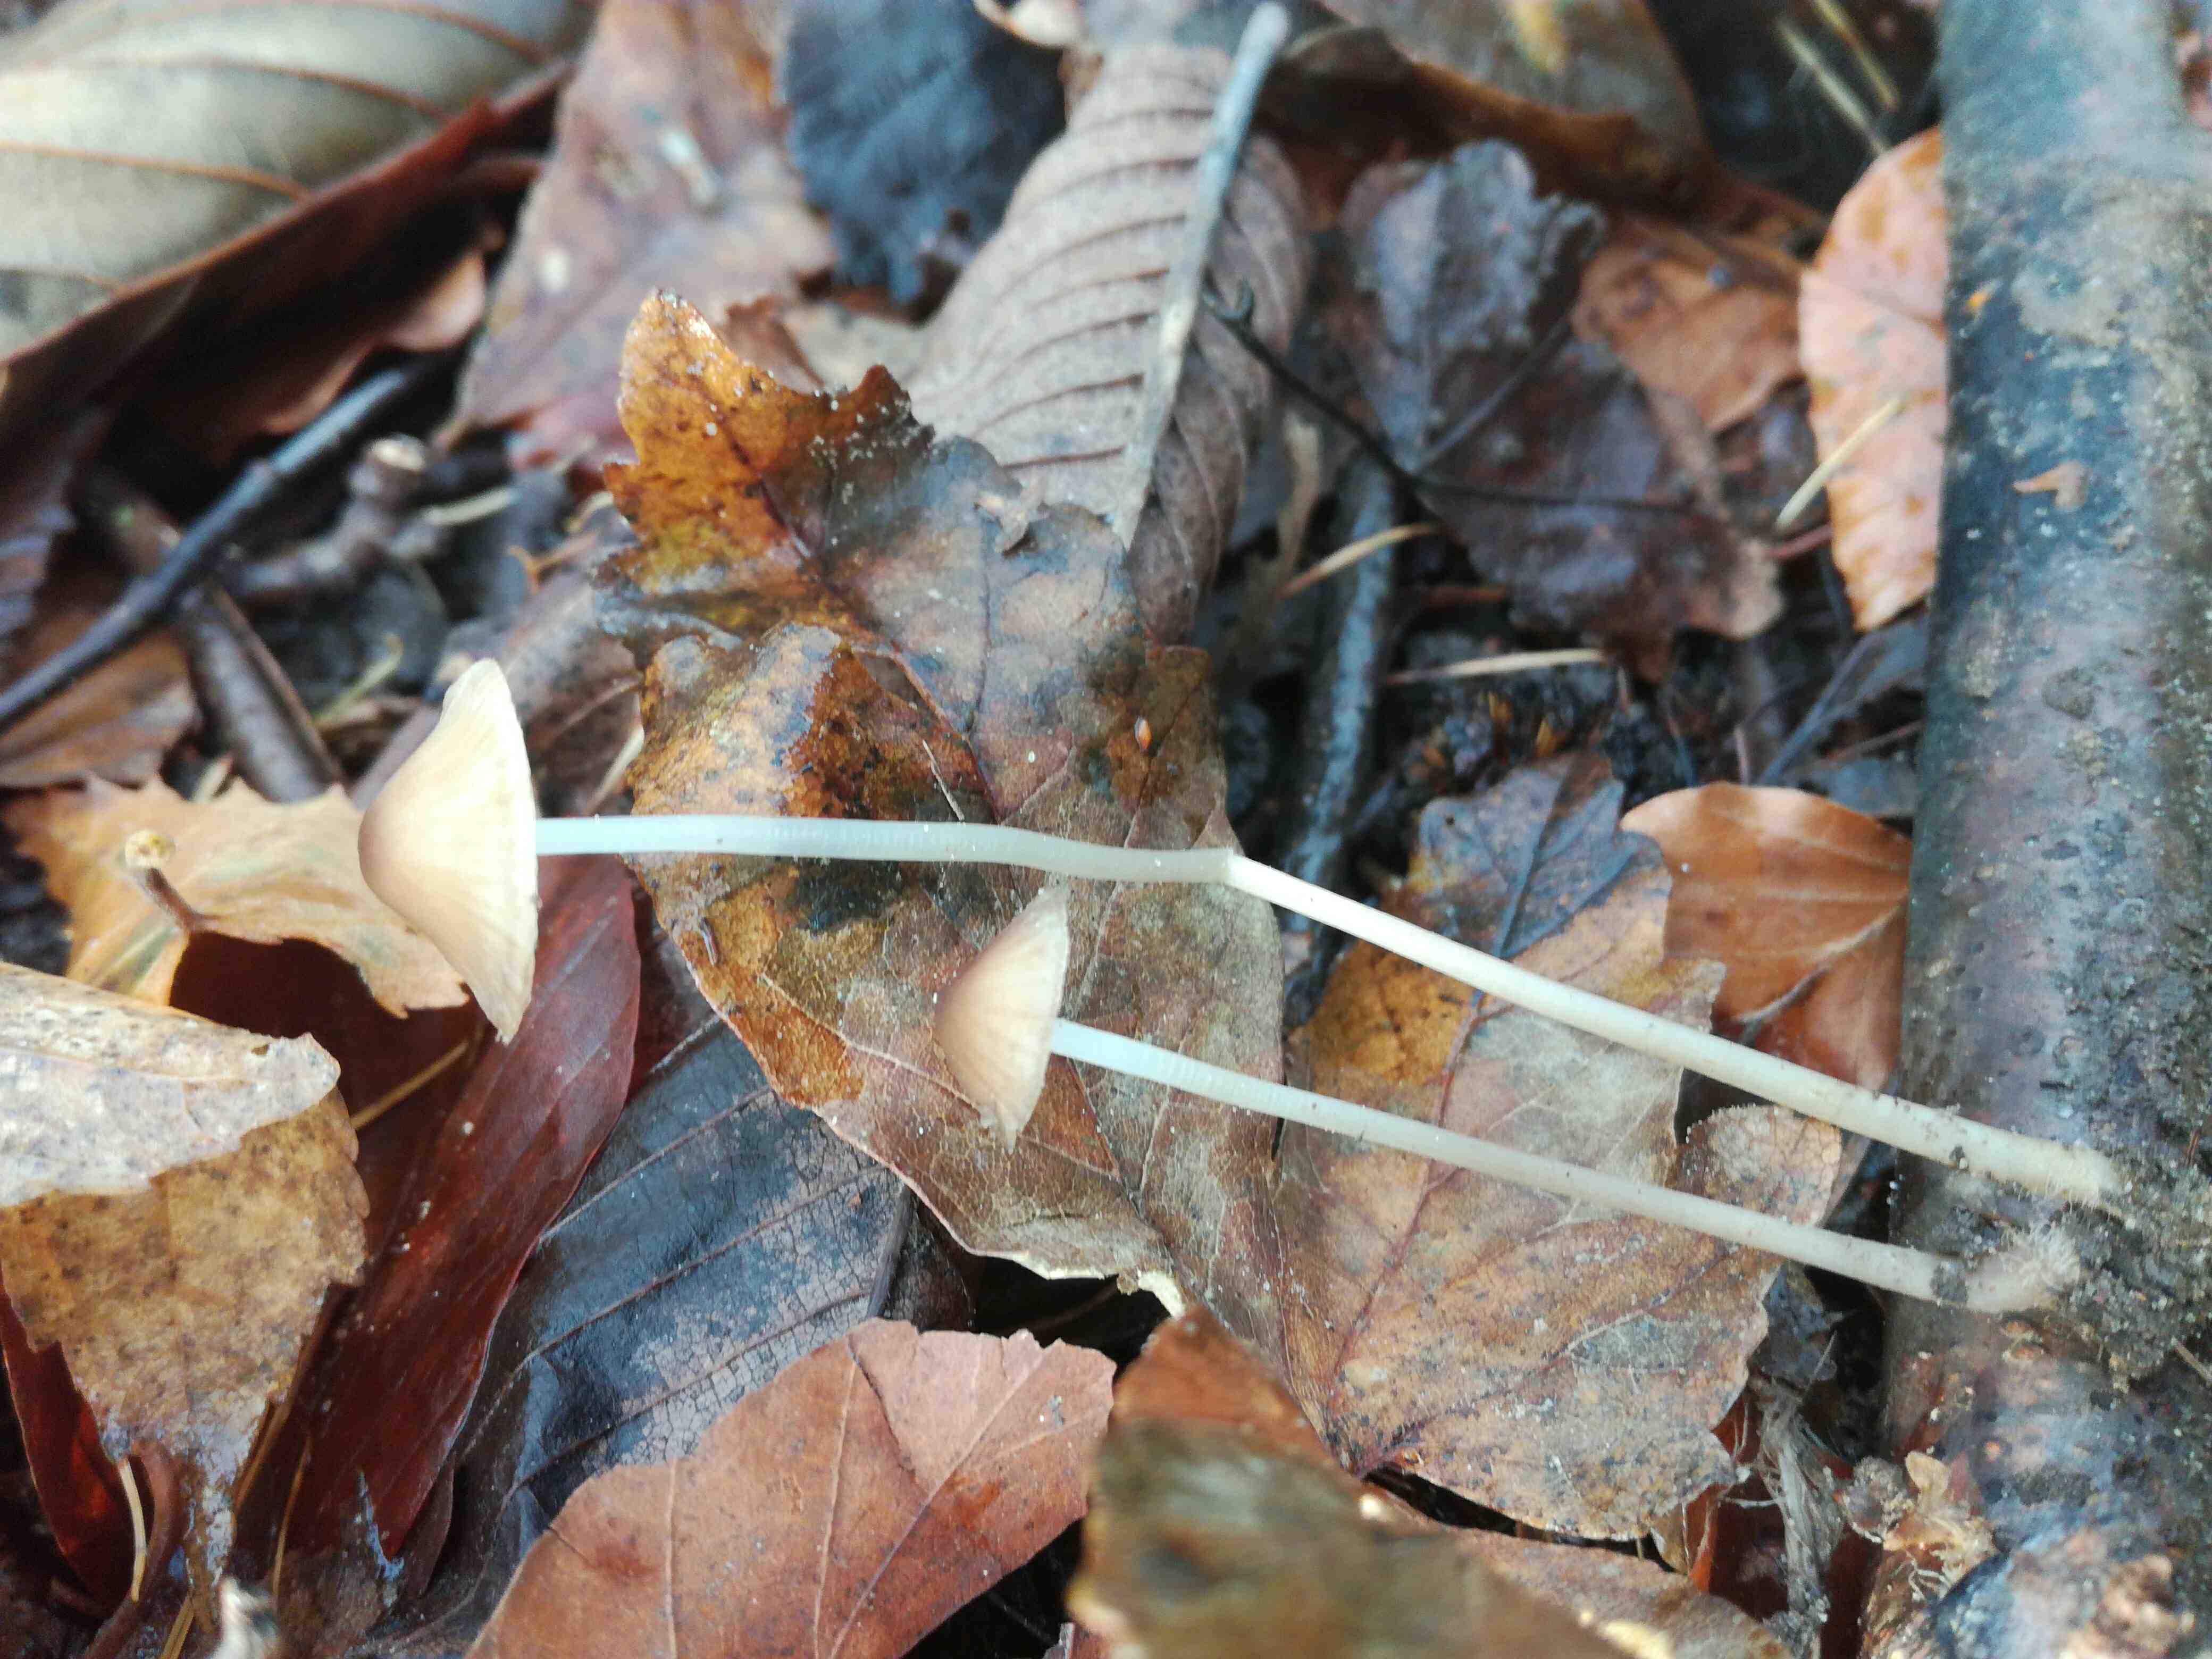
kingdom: Fungi
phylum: Basidiomycota
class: Agaricomycetes
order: Agaricales
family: Mycenaceae
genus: Mycena
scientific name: Mycena vitilis
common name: blankstokket huesvamp
